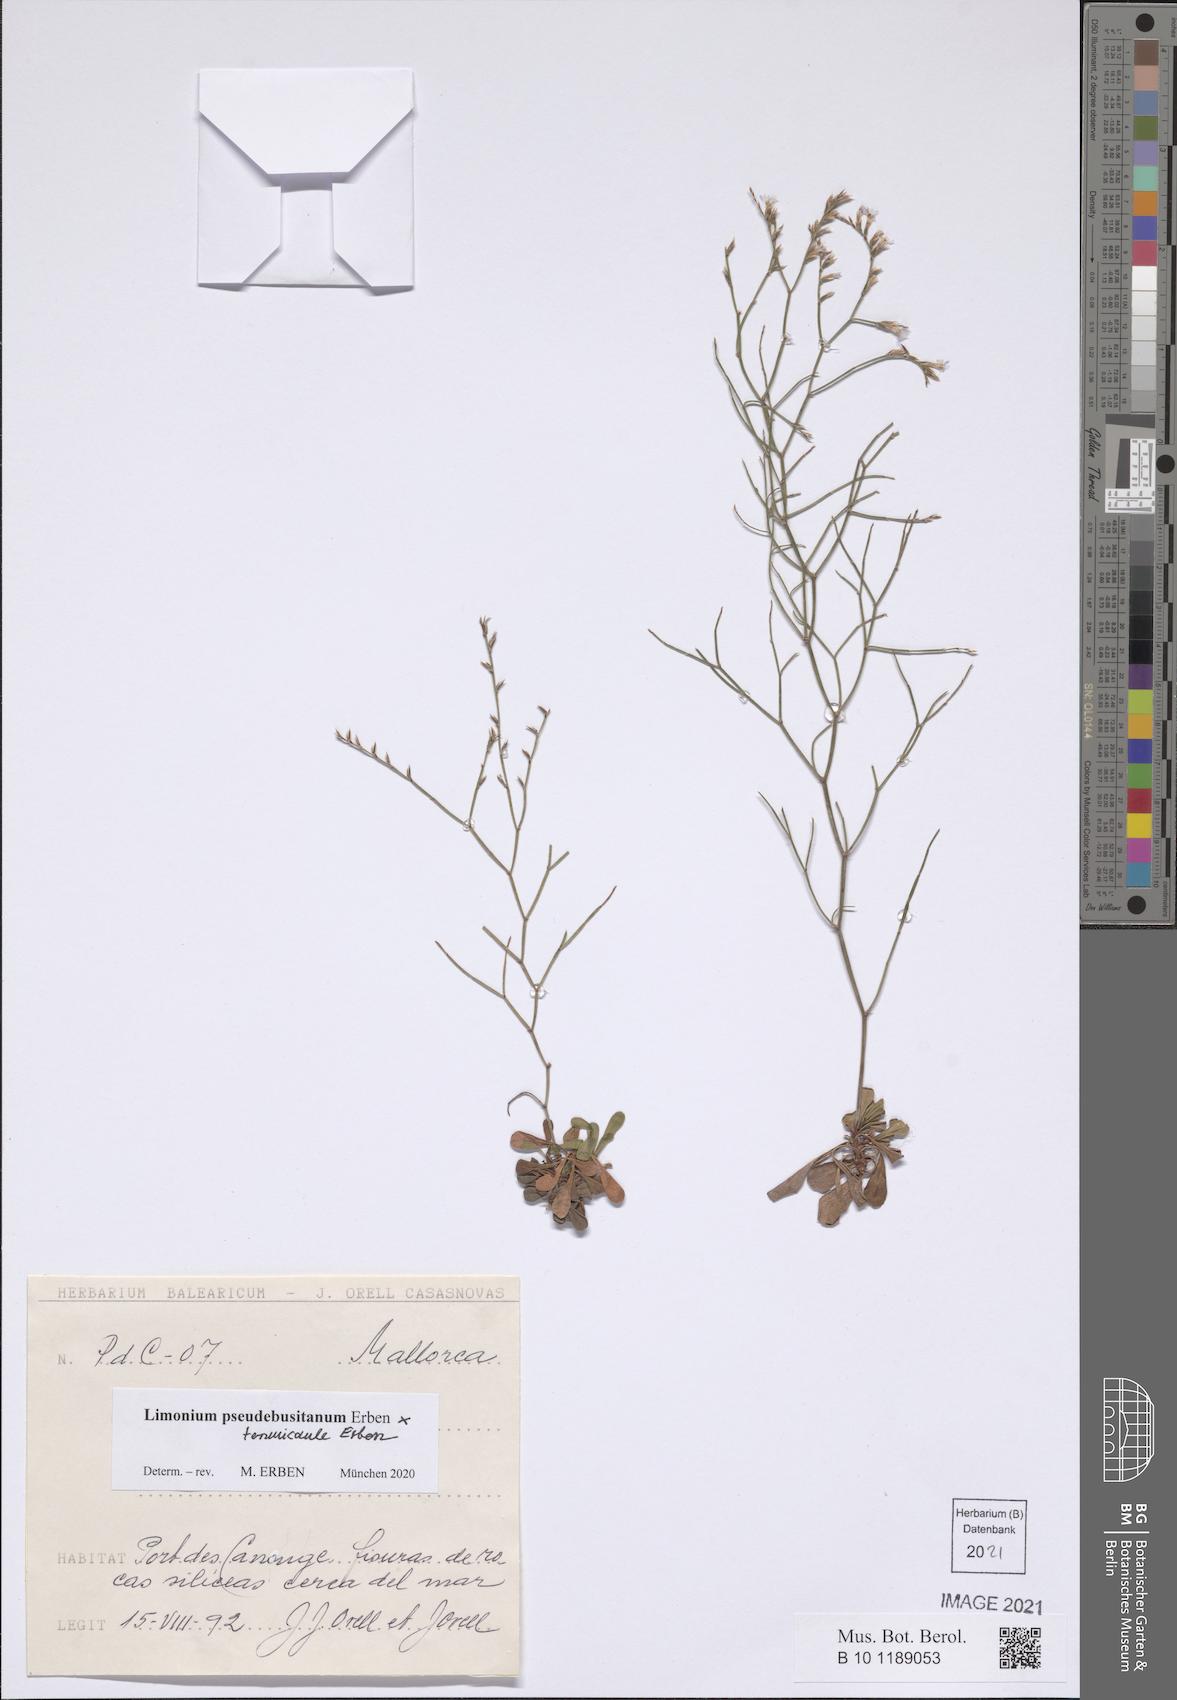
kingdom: Plantae
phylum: Tracheophyta
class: Magnoliopsida
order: Caryophyllales
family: Plumbaginaceae
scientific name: Plumbaginaceae
